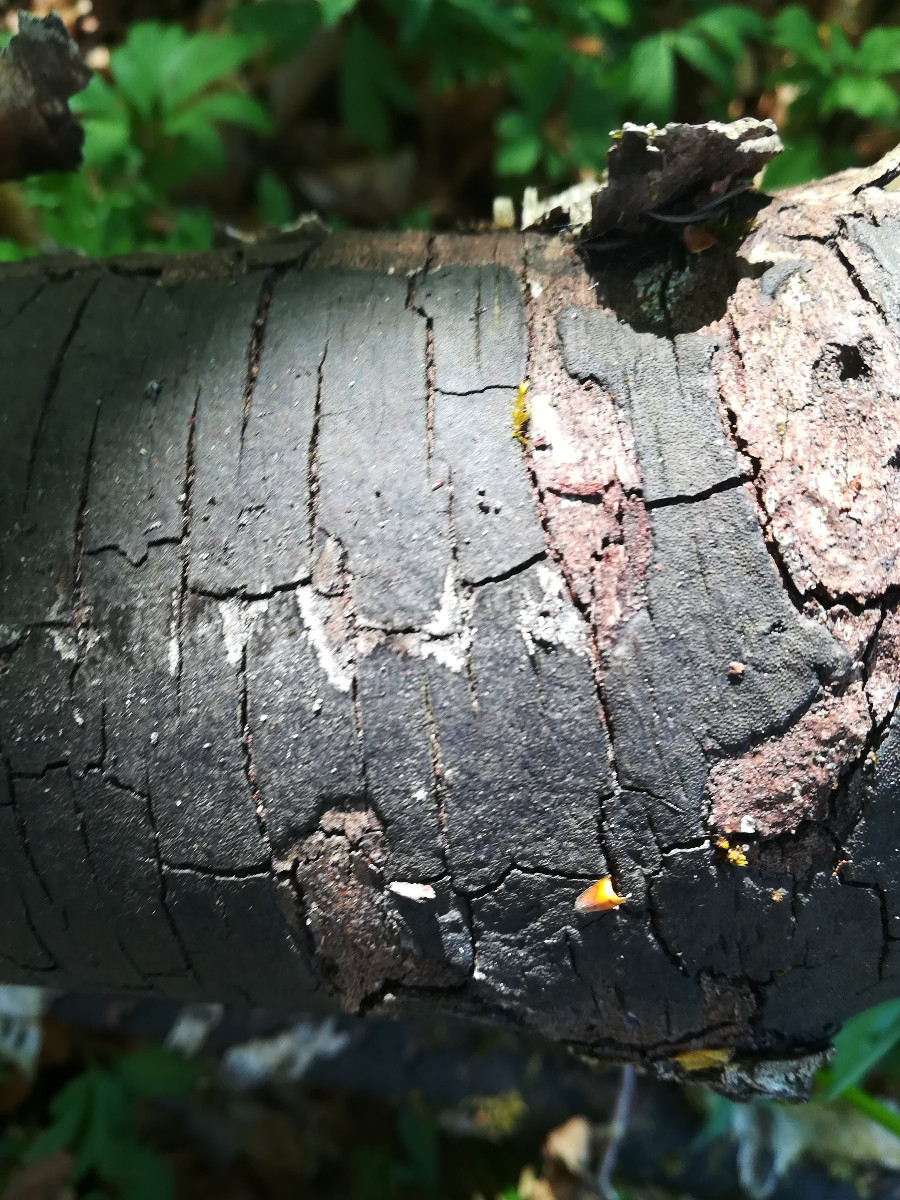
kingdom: Fungi
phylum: Ascomycota
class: Sordariomycetes
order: Xylariales
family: Diatrypaceae
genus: Diatrype
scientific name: Diatrype
